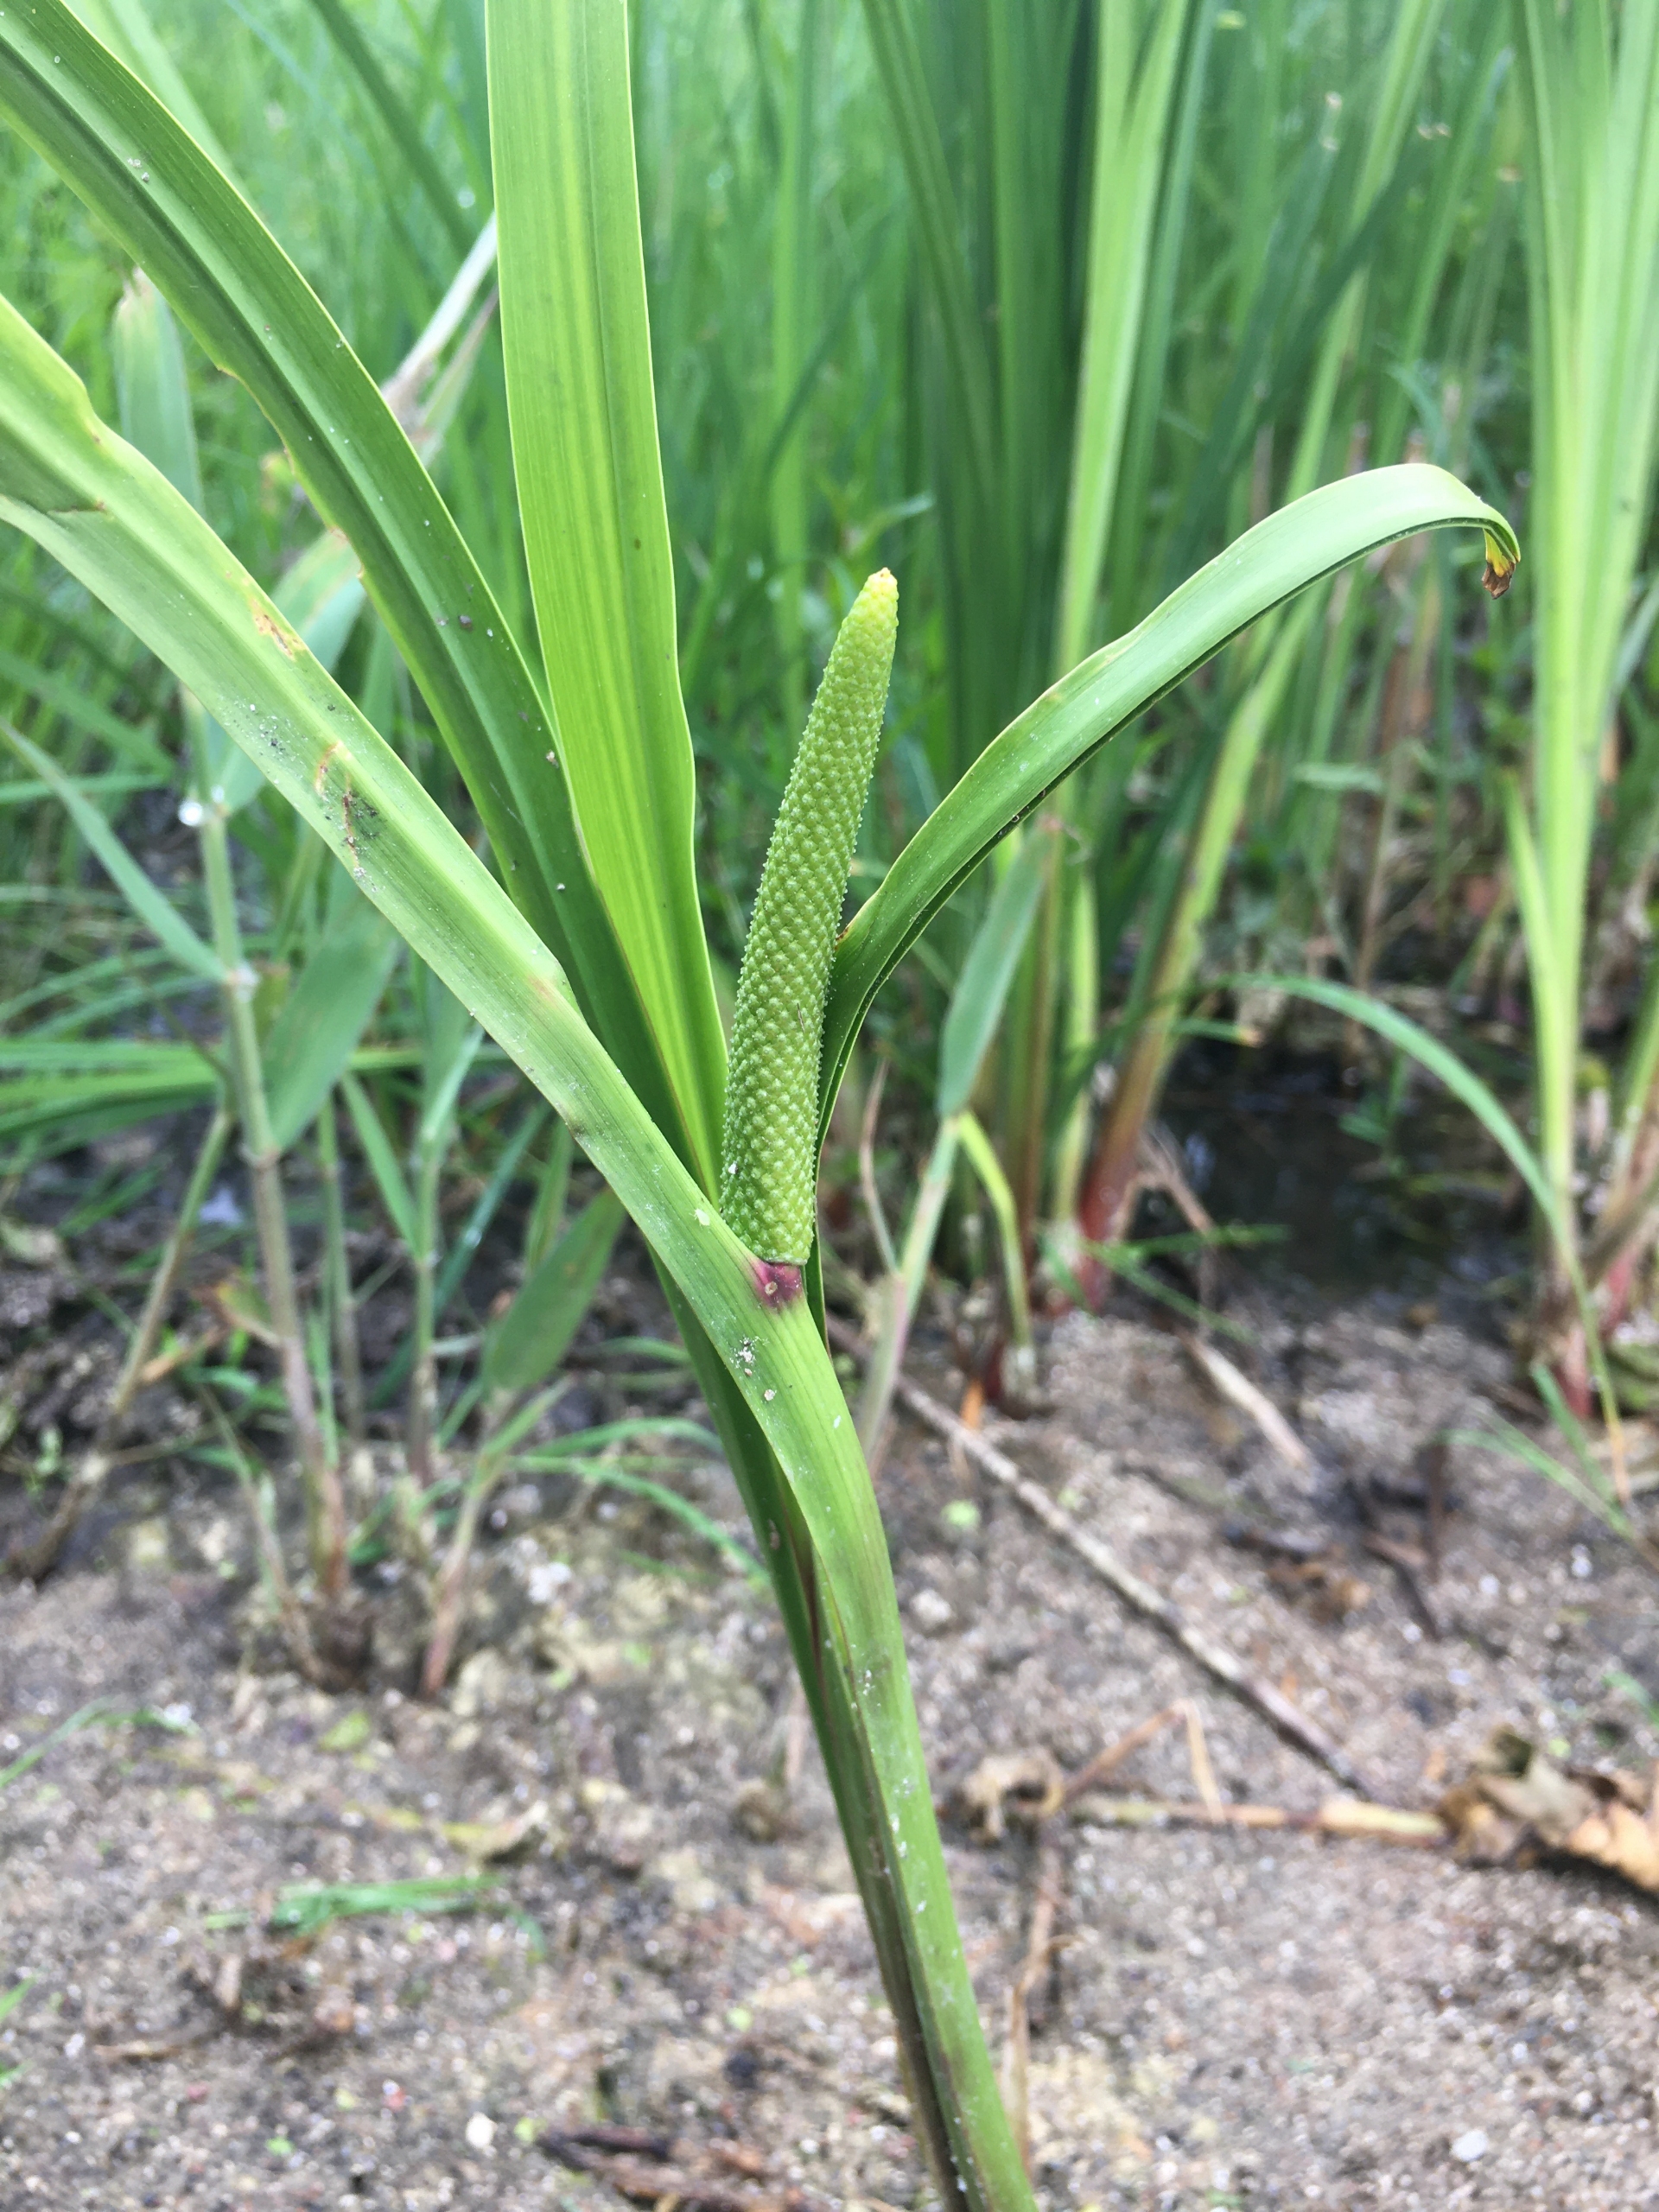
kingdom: Plantae
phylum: Tracheophyta
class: Liliopsida
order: Acorales
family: Acoraceae
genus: Acorus
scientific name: Acorus calamus
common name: Kalmus
